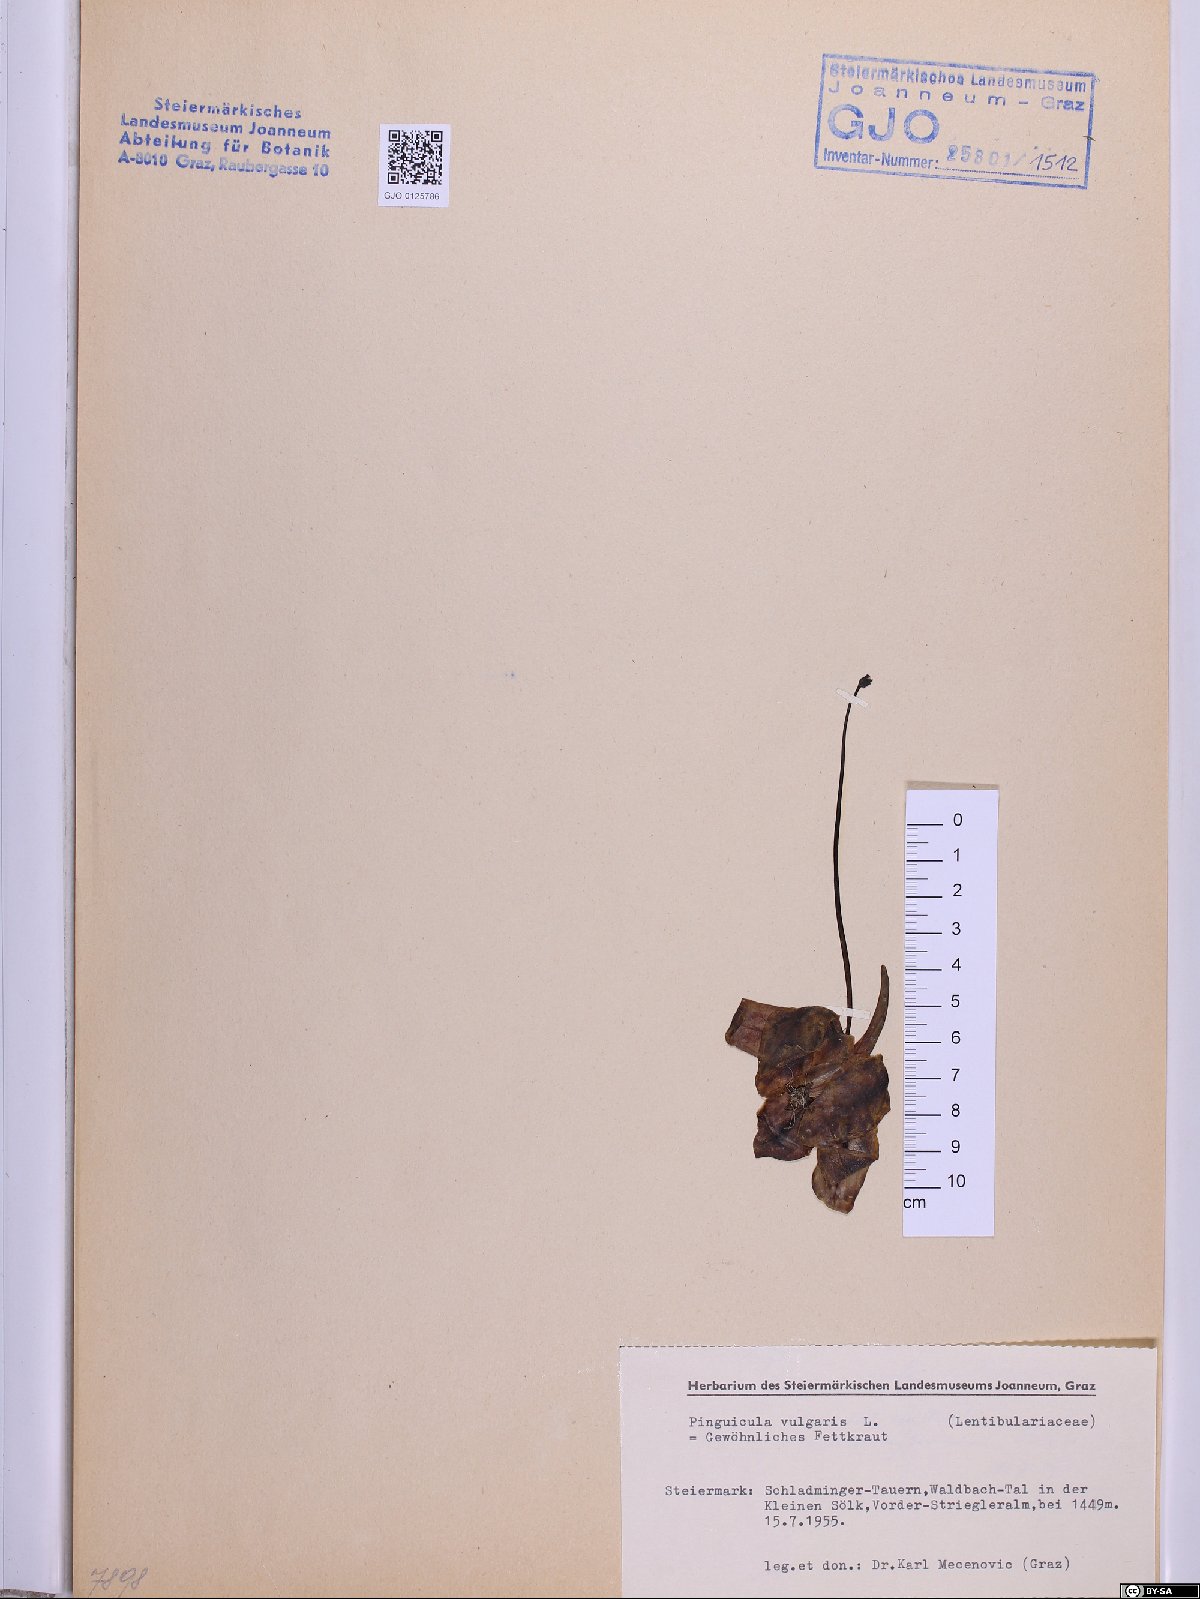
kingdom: Plantae
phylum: Tracheophyta
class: Magnoliopsida
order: Lamiales
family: Lentibulariaceae
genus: Pinguicula
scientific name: Pinguicula vulgaris
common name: Common butterwort
